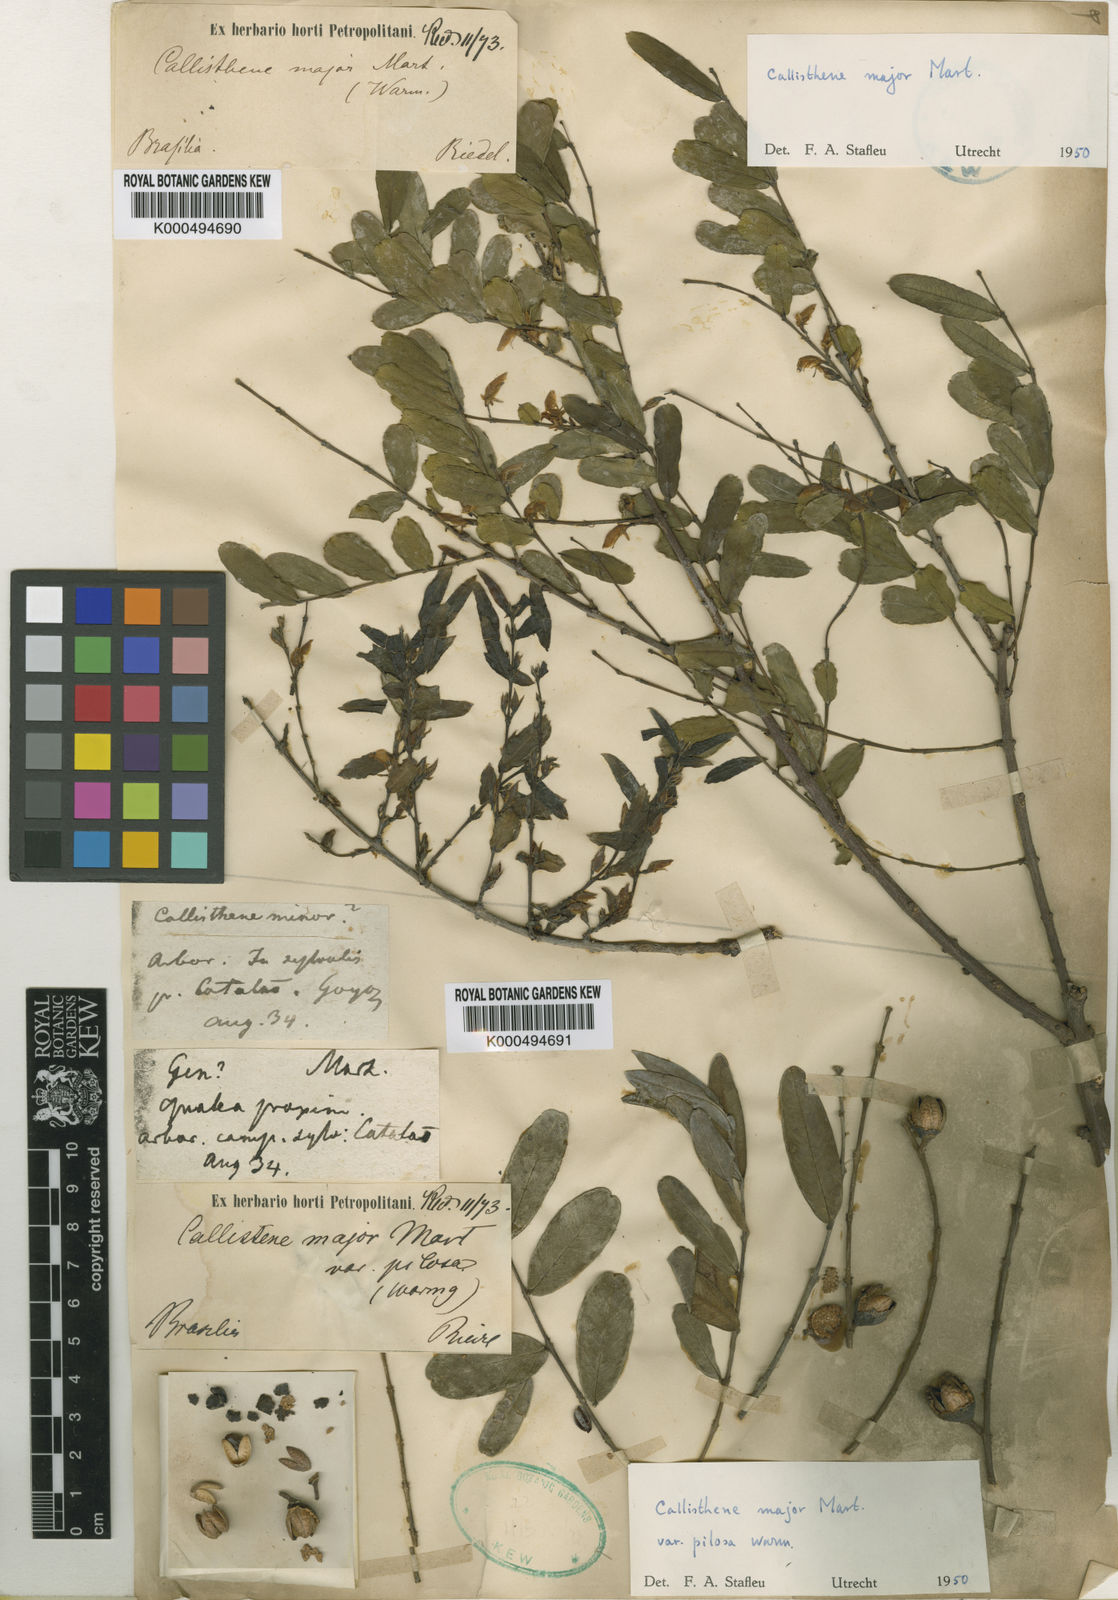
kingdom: Plantae
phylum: Tracheophyta
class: Magnoliopsida
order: Myrtales
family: Vochysiaceae
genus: Callisthene
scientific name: Callisthene major
